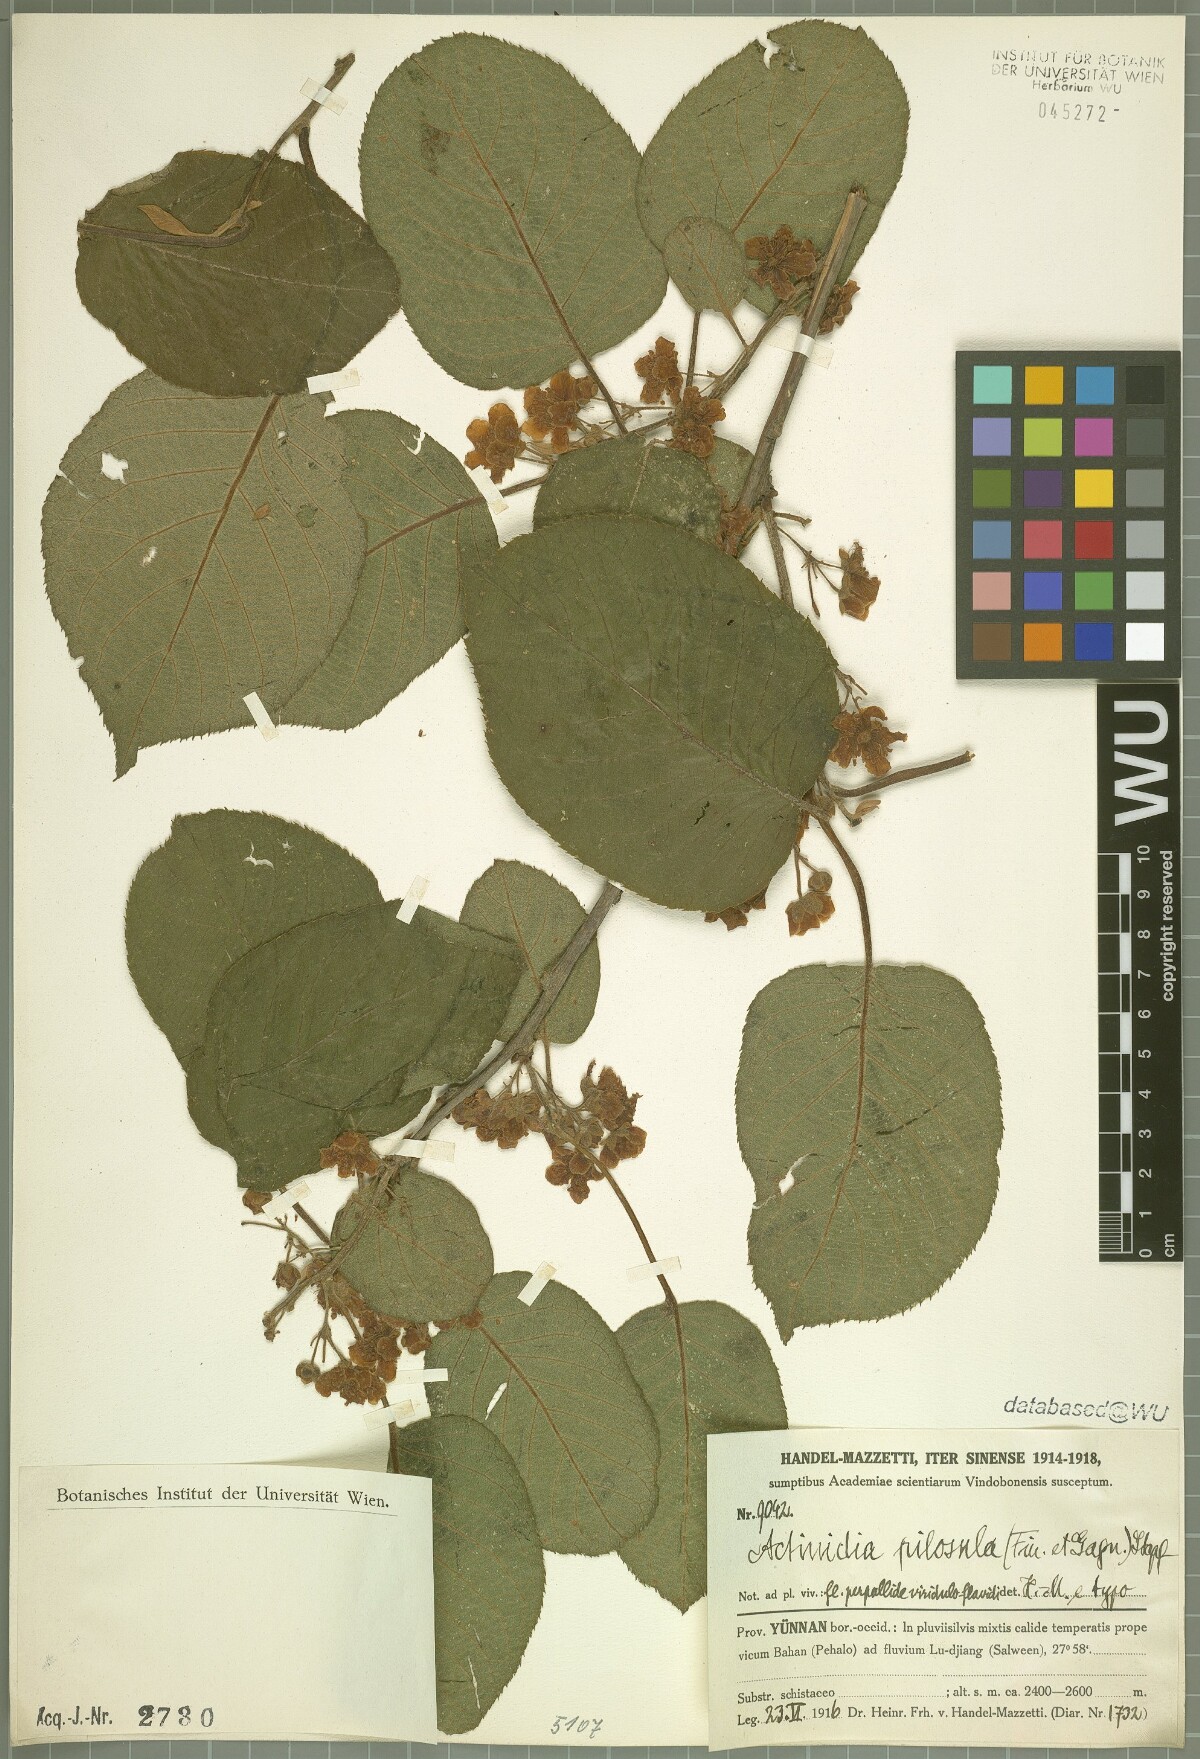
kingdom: Plantae
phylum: Tracheophyta
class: Magnoliopsida
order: Ericales
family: Actinidiaceae
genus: Actinidia
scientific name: Actinidia pilosula
